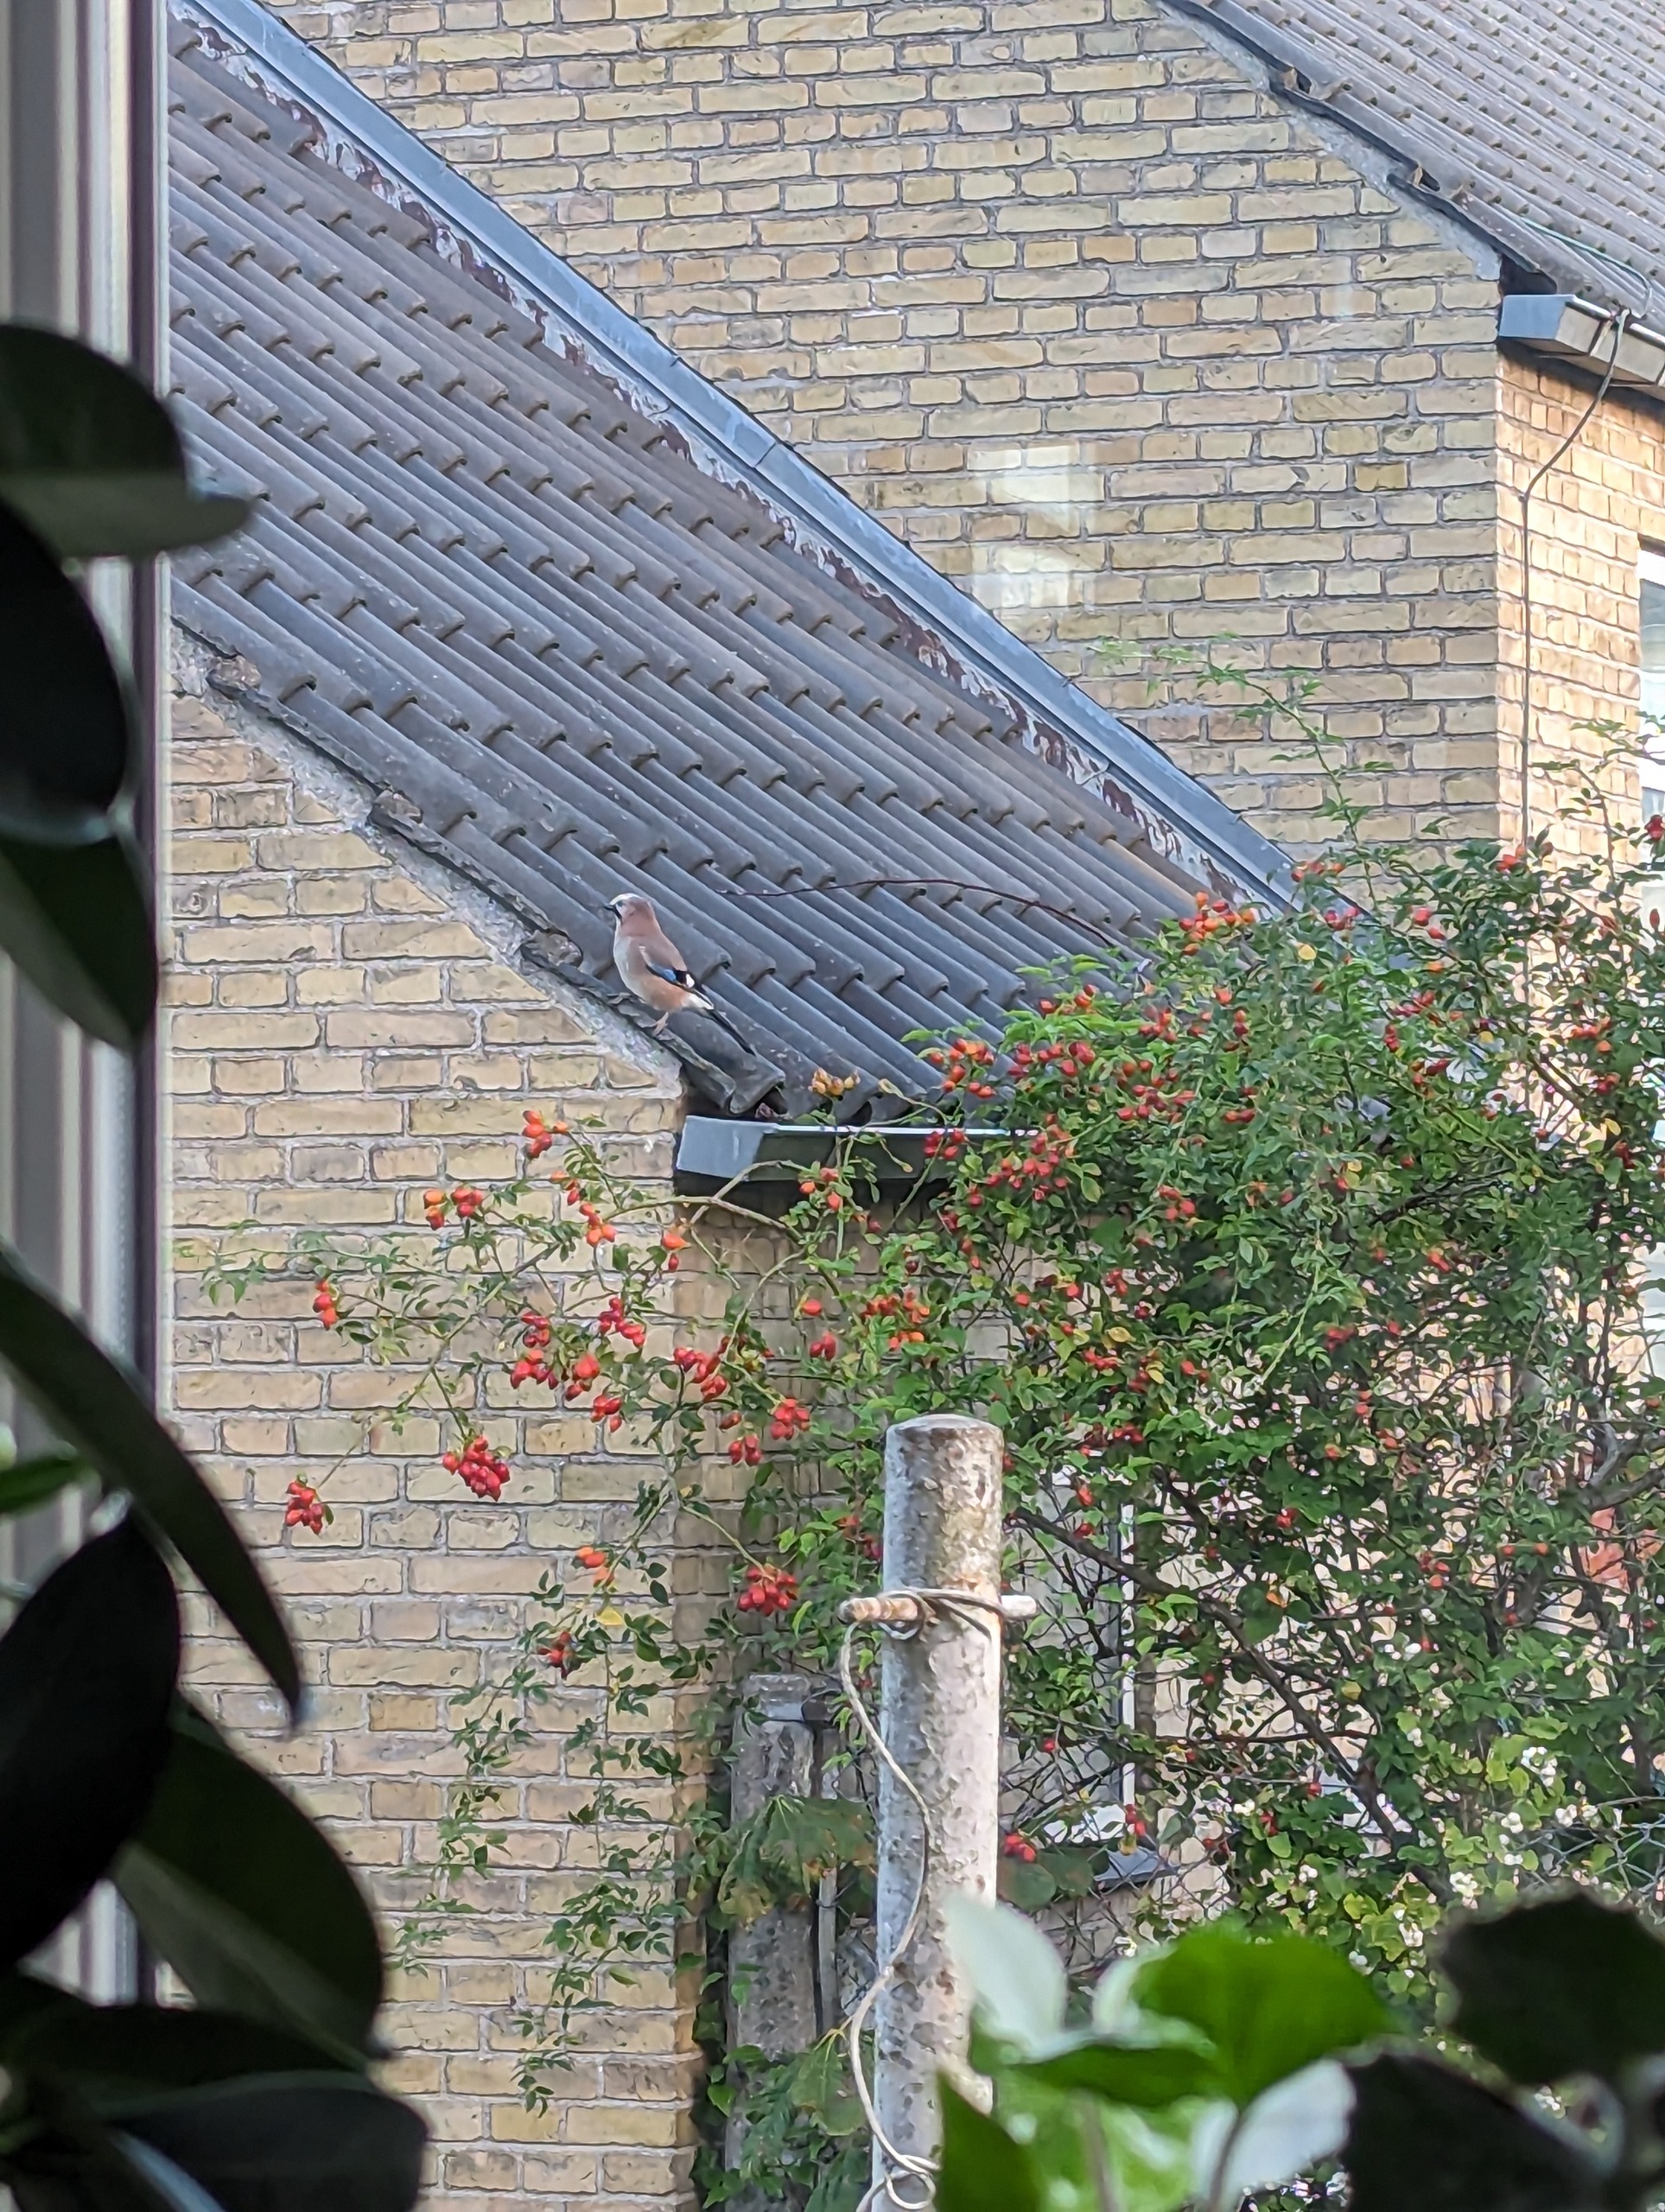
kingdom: Animalia
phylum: Chordata
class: Aves
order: Passeriformes
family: Corvidae
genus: Garrulus
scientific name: Garrulus glandarius
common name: Skovskade
